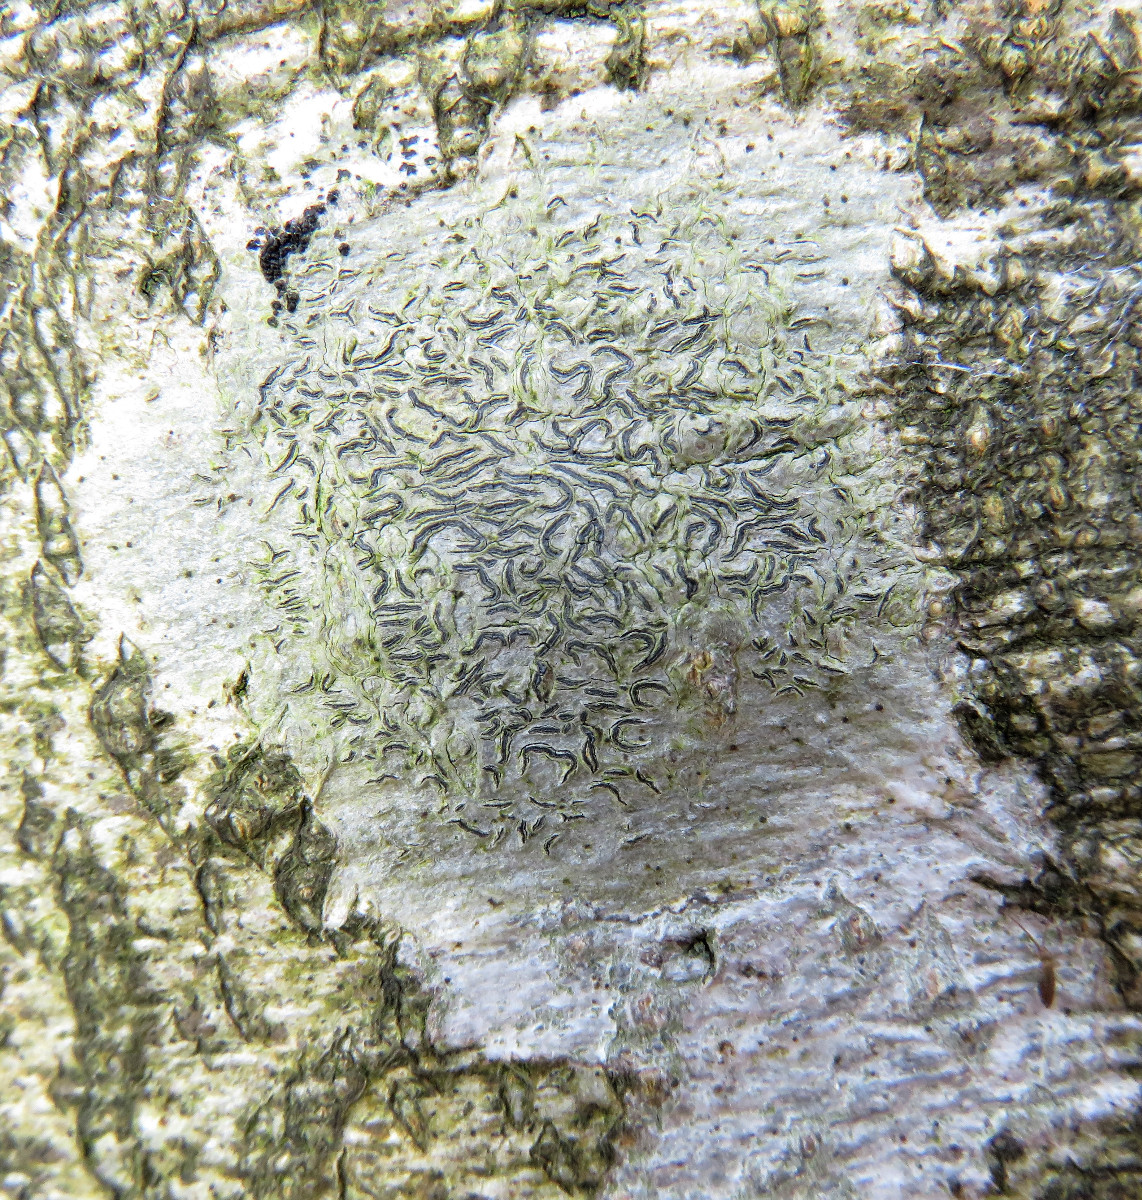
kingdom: Fungi
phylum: Ascomycota
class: Lecanoromycetes
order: Ostropales
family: Graphidaceae
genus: Graphis
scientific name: Graphis scripta
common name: almindelig skriftlav
